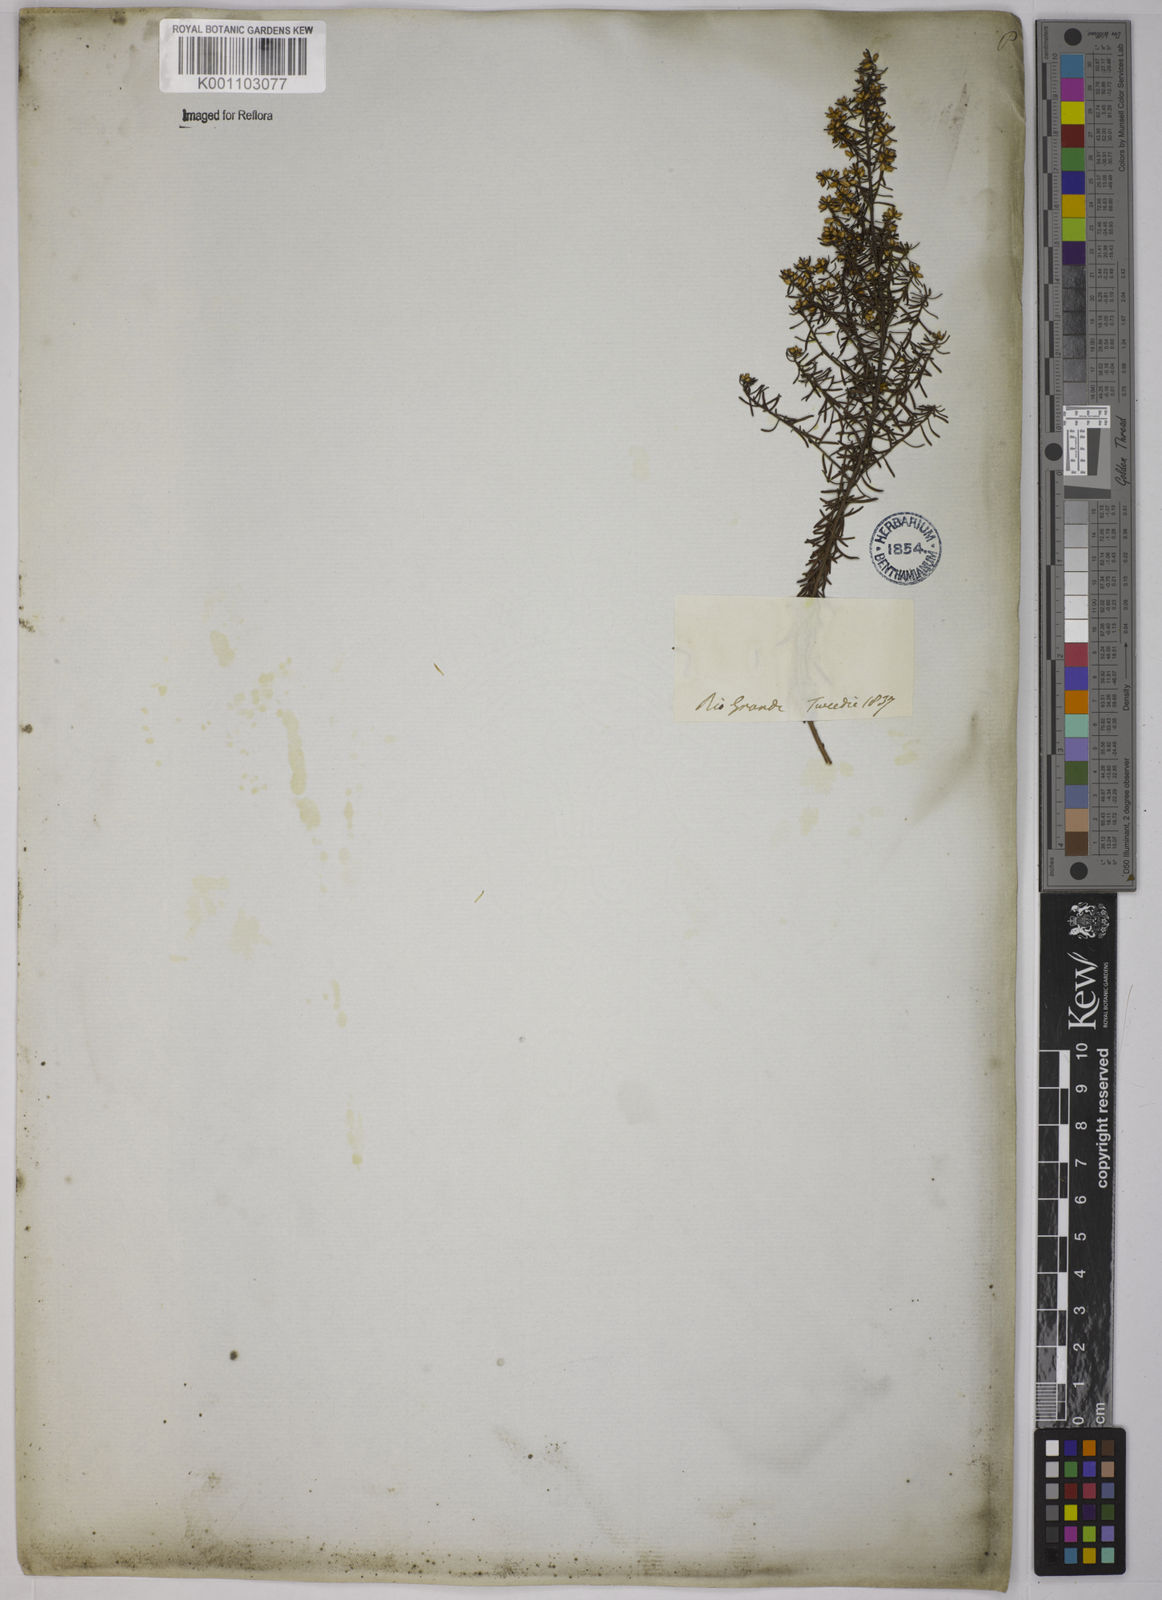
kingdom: Plantae
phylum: Tracheophyta
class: Magnoliopsida
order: Asterales
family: Asteraceae
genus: Baccharis
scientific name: Baccharis leptocephala
